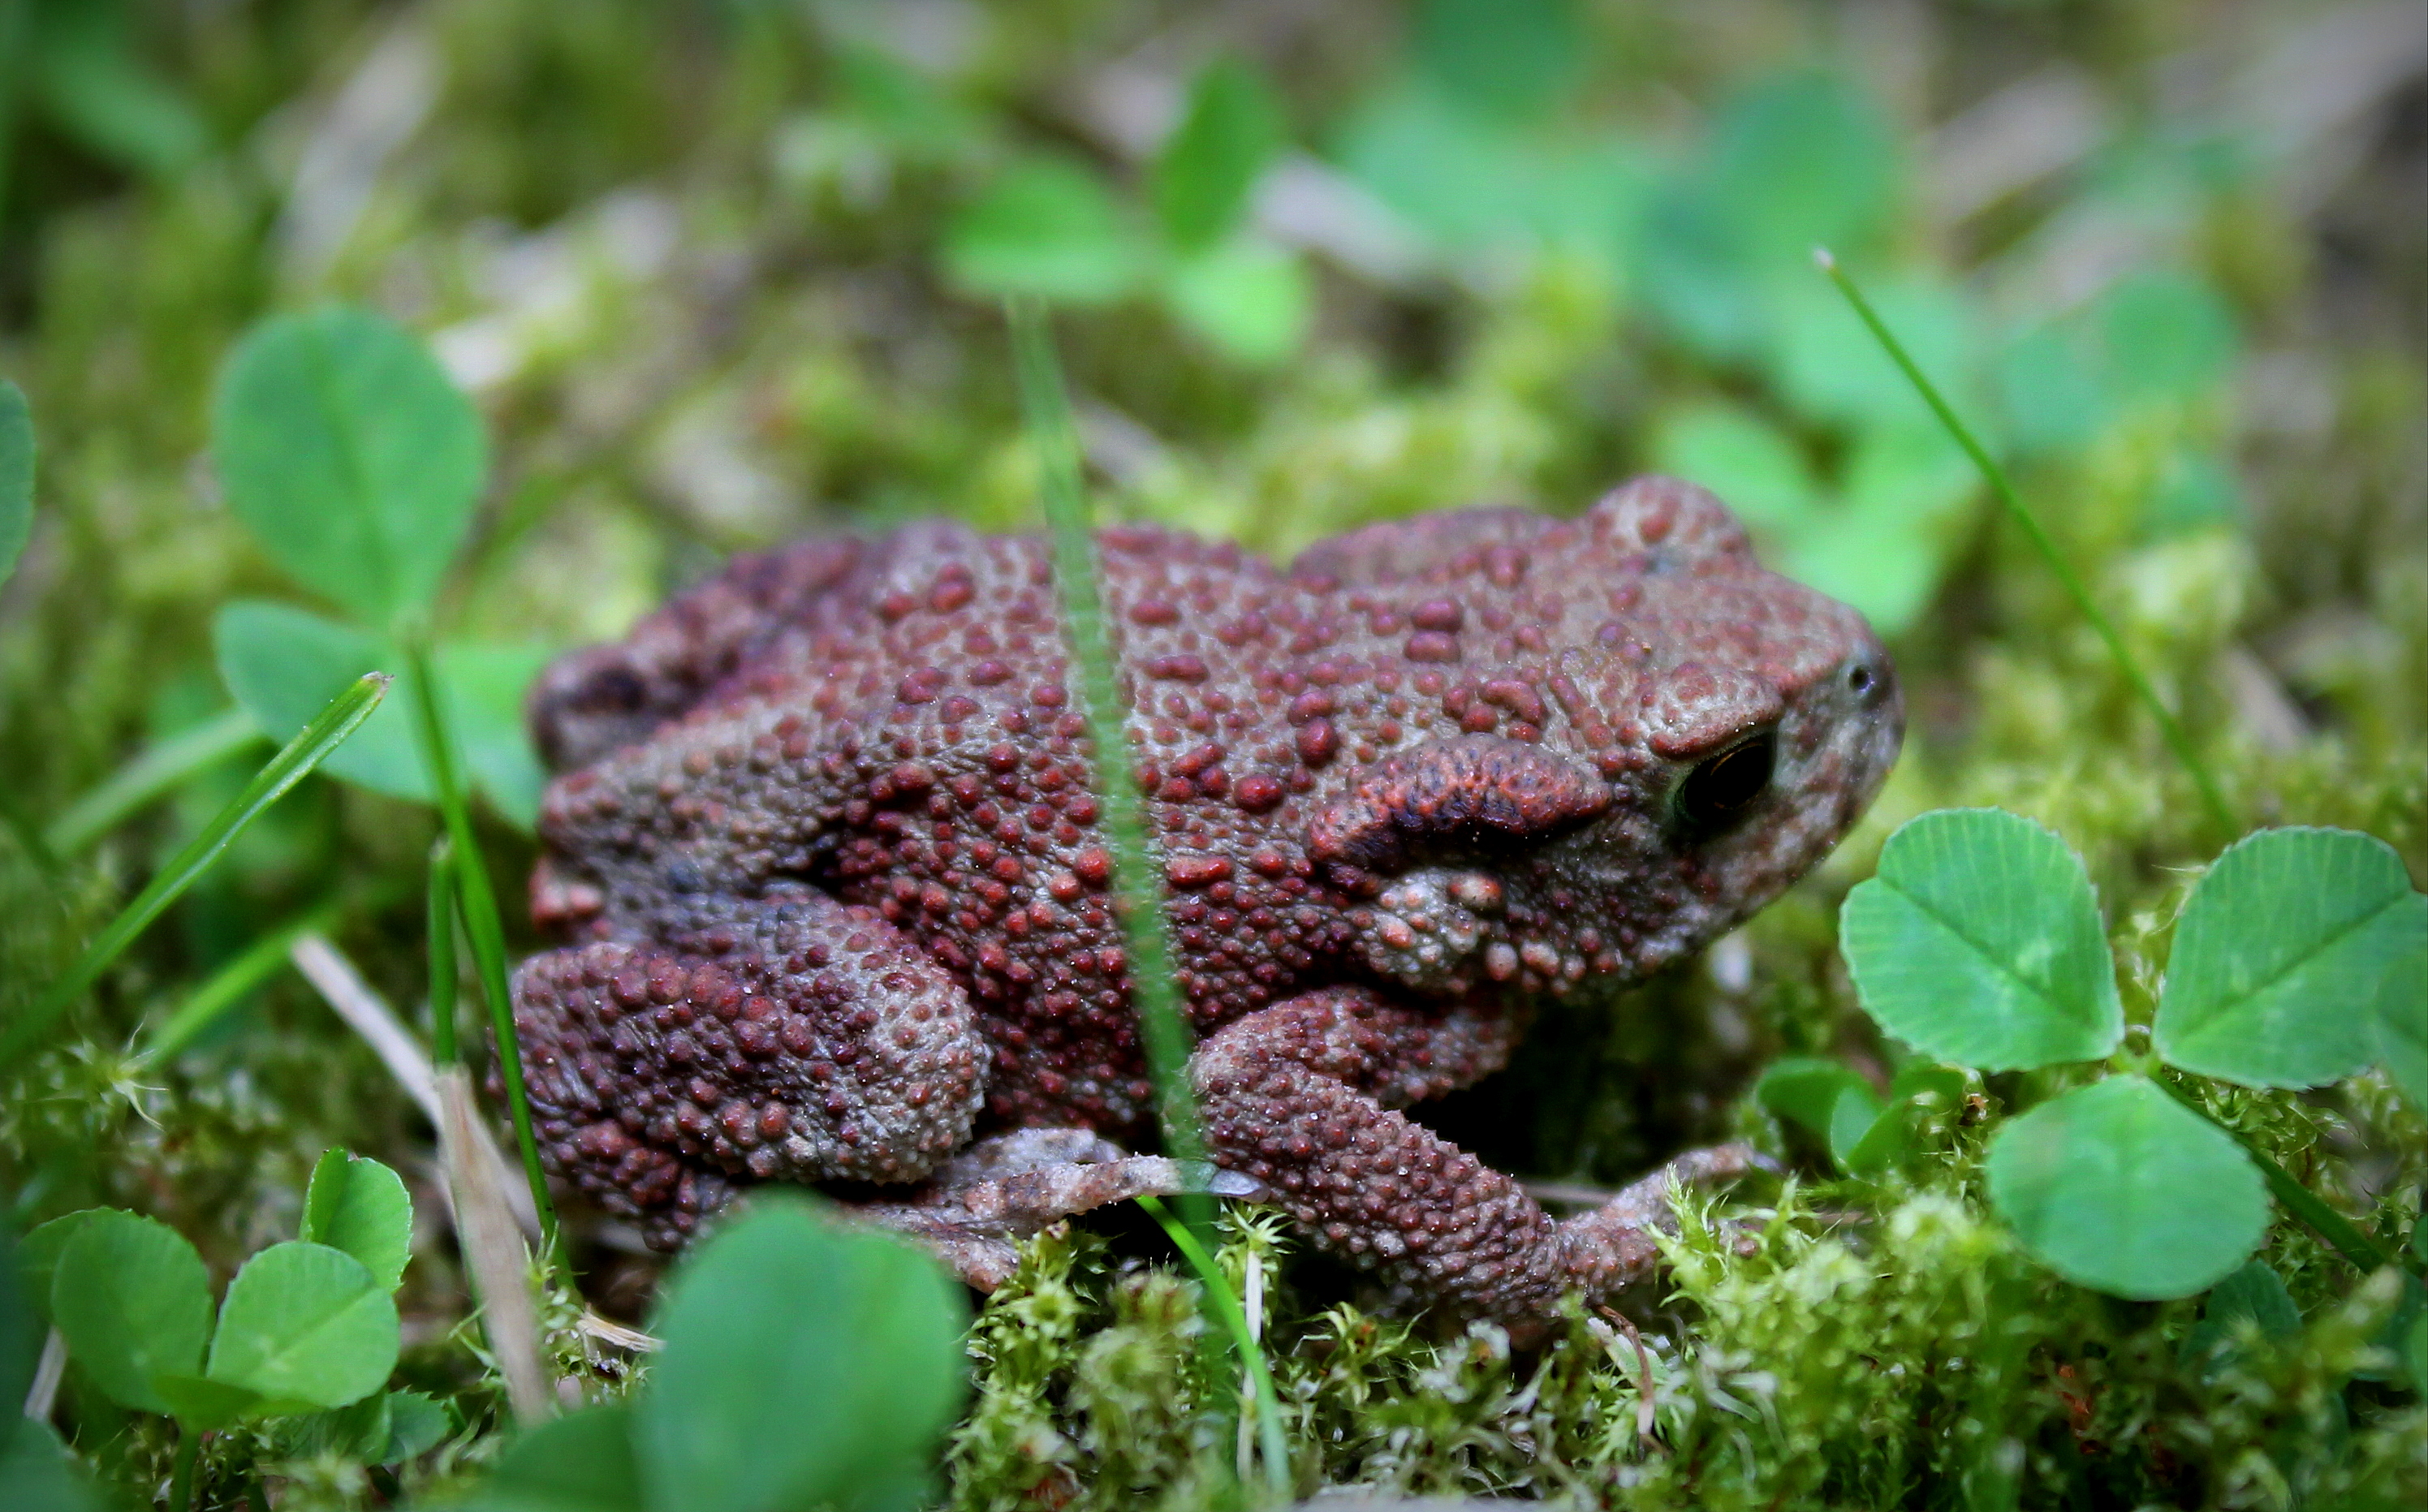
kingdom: Animalia
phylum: Chordata
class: Amphibia
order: Anura
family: Bufonidae
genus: Bufo
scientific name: Bufo bufo
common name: Common toad
